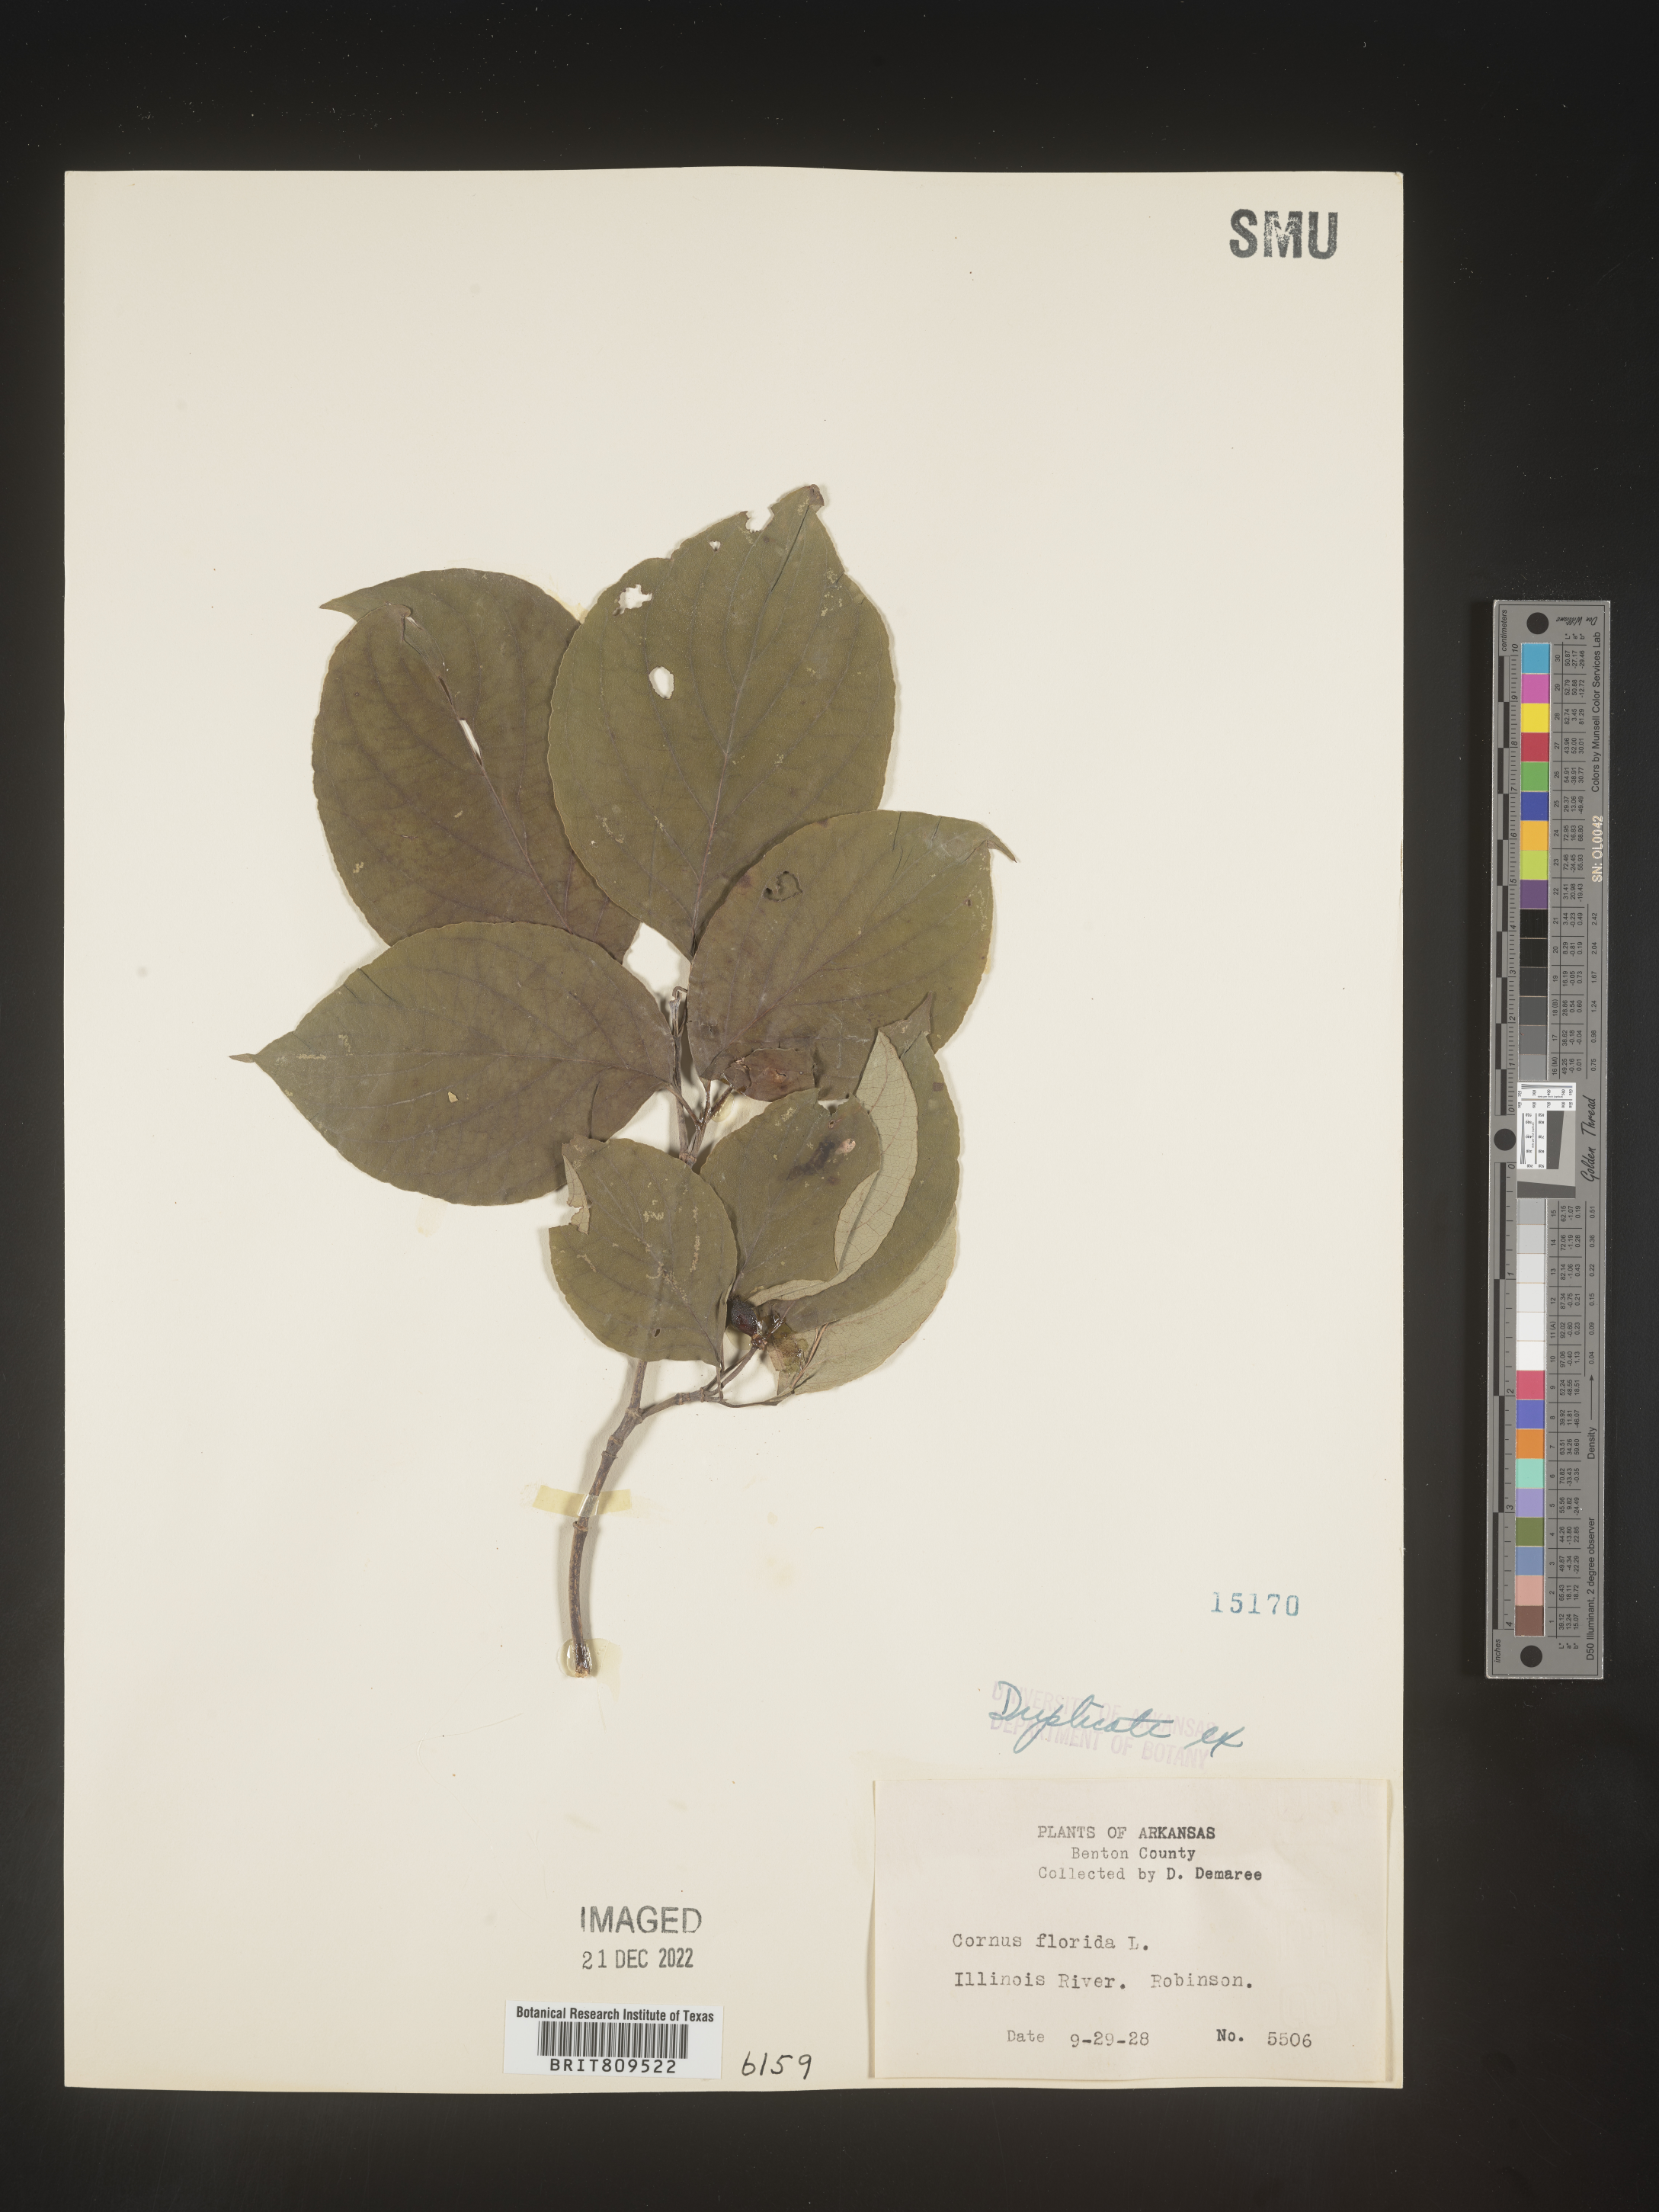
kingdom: Plantae
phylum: Tracheophyta
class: Magnoliopsida
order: Cornales
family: Cornaceae
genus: Cornus
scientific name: Cornus florida
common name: Flowering dogwood
